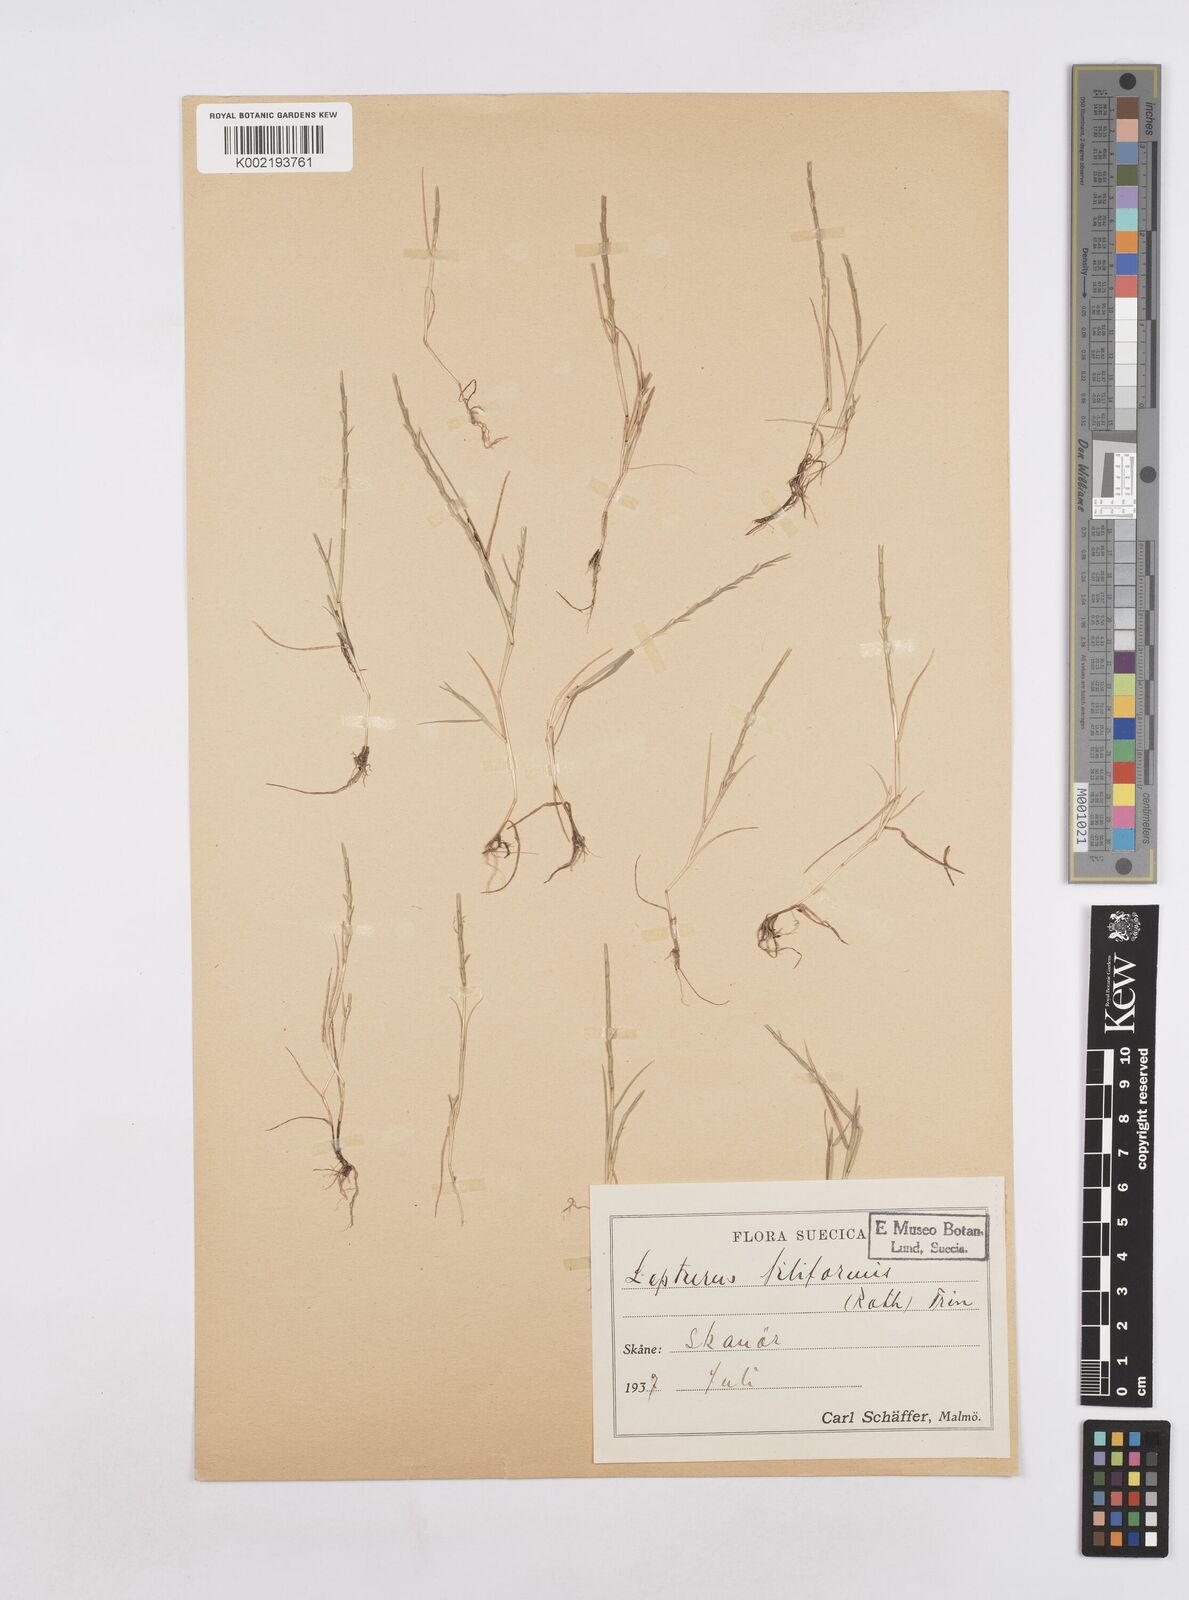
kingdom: Plantae
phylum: Tracheophyta
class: Liliopsida
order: Poales
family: Poaceae
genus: Parapholis
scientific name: Parapholis
